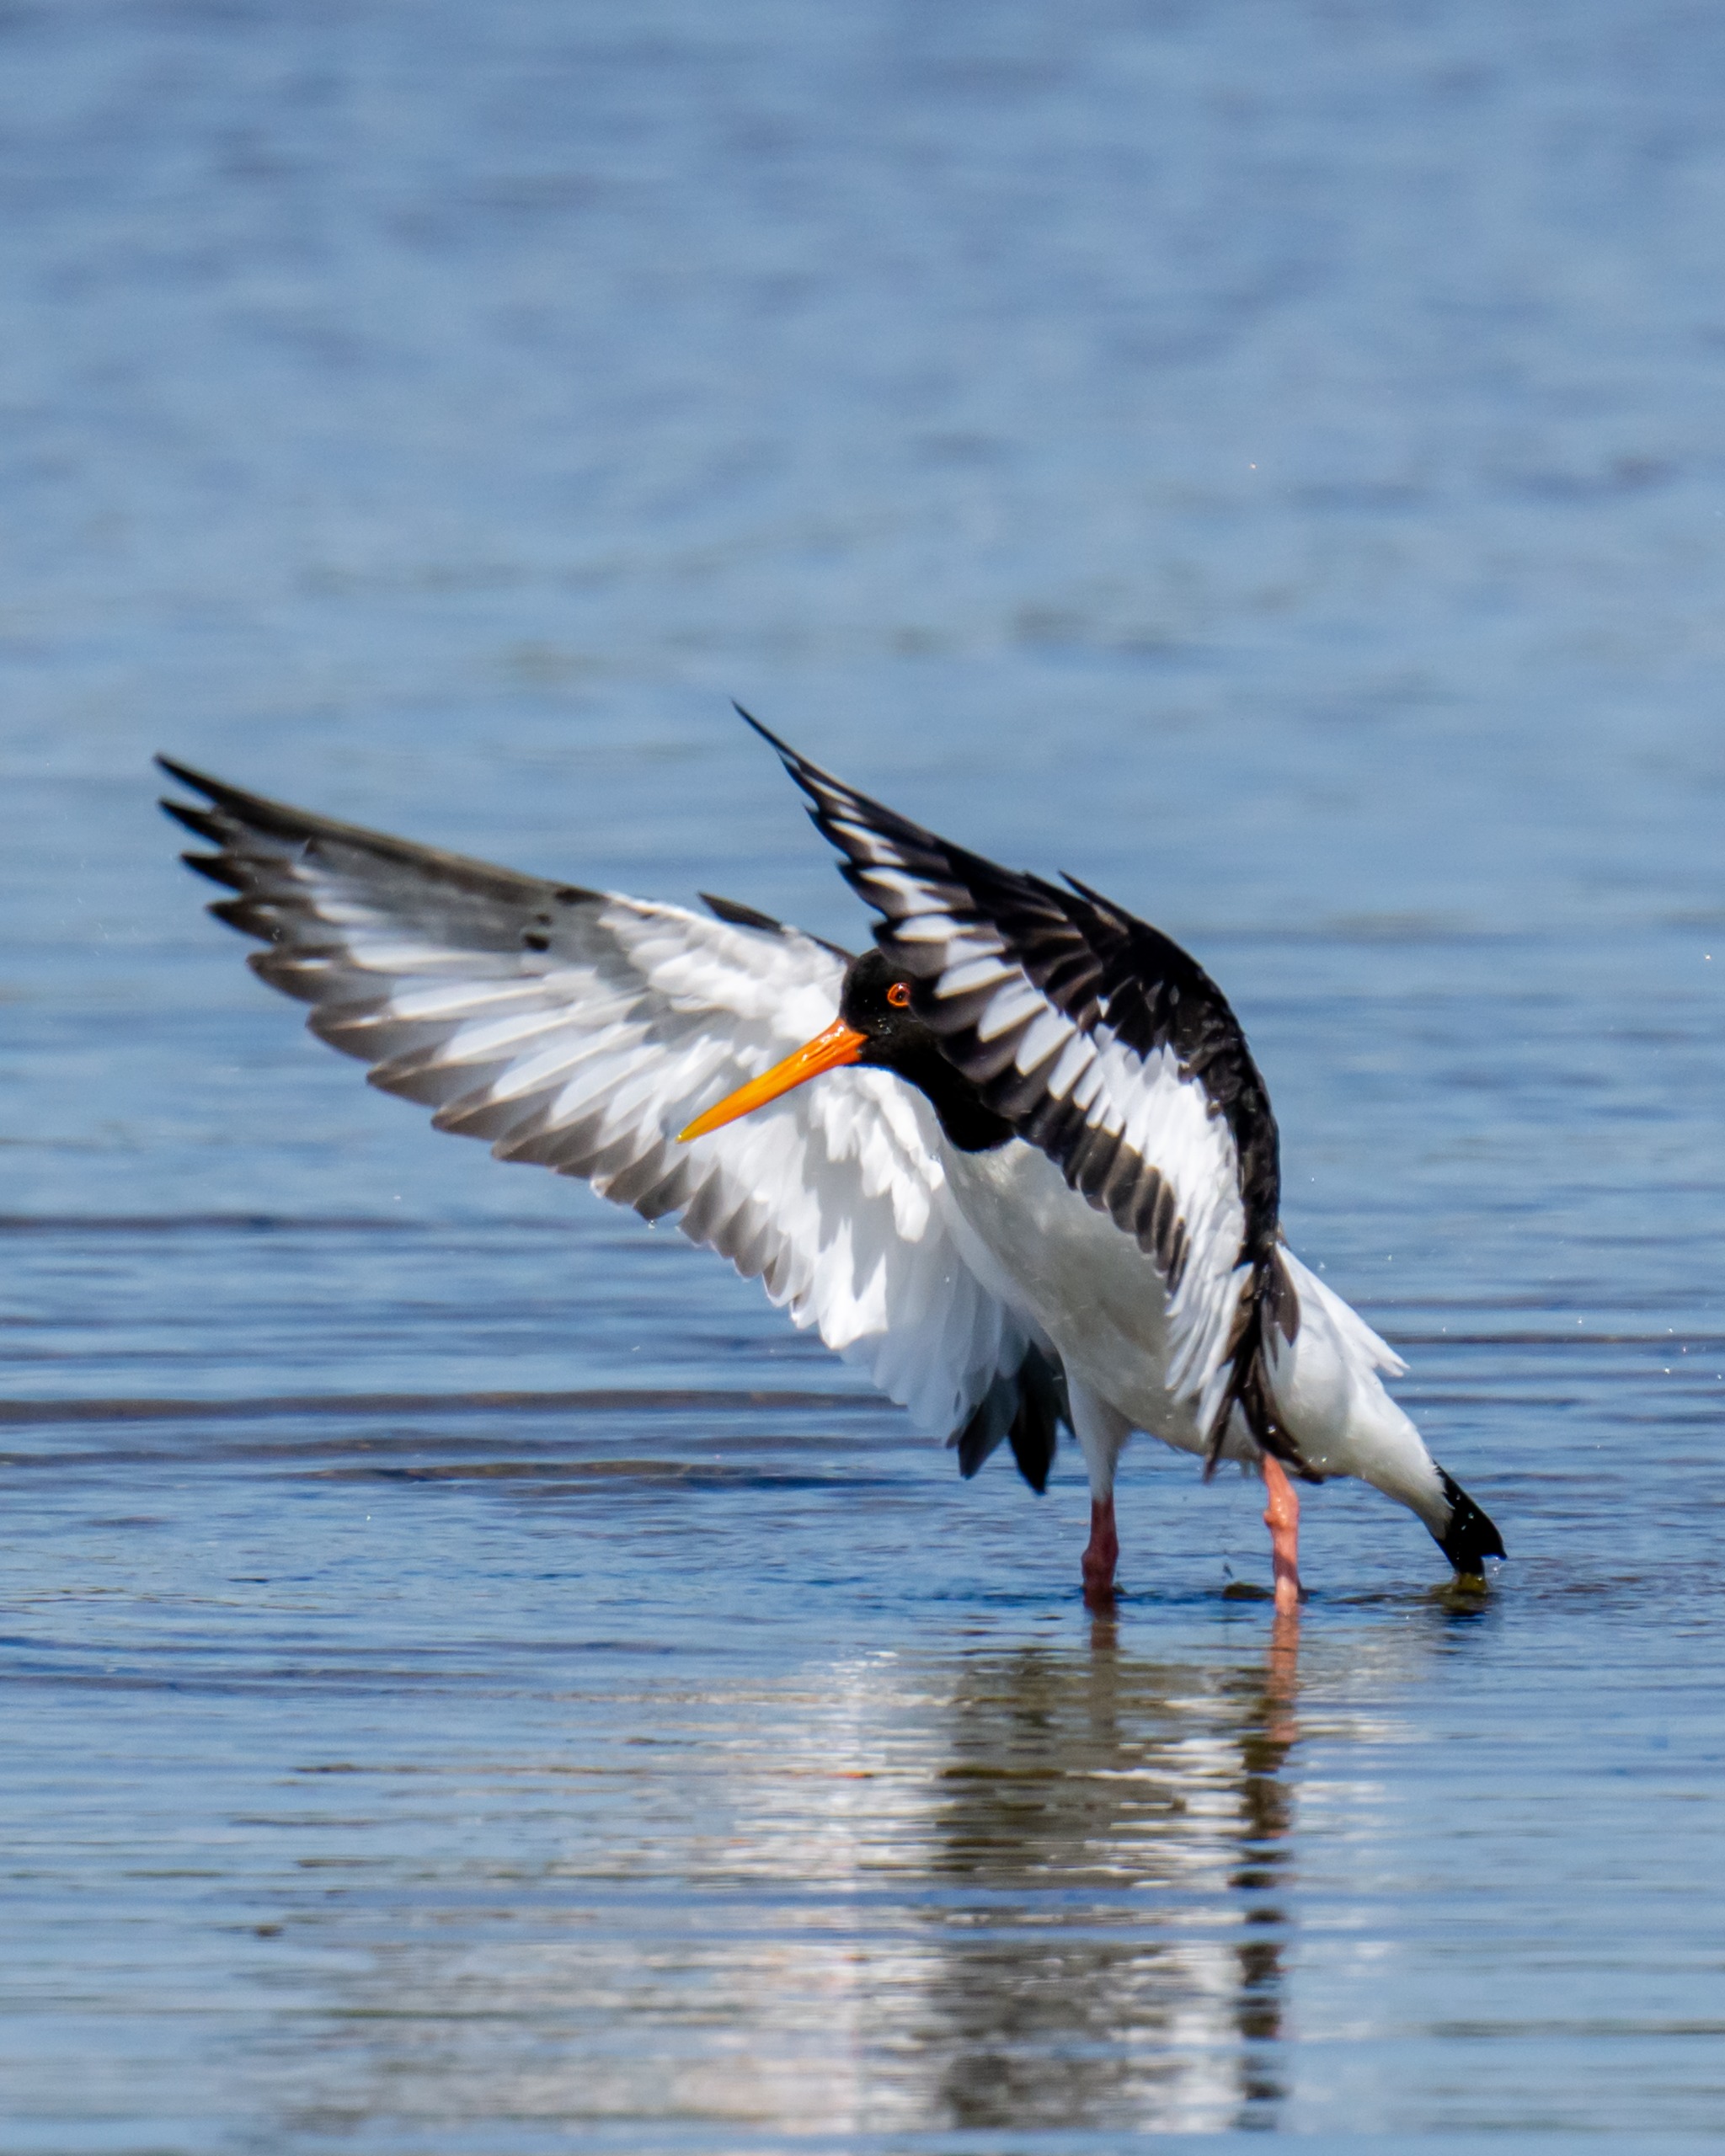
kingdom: Animalia
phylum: Chordata
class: Aves
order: Charadriiformes
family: Haematopodidae
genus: Haematopus
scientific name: Haematopus ostralegus
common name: Strandskade
